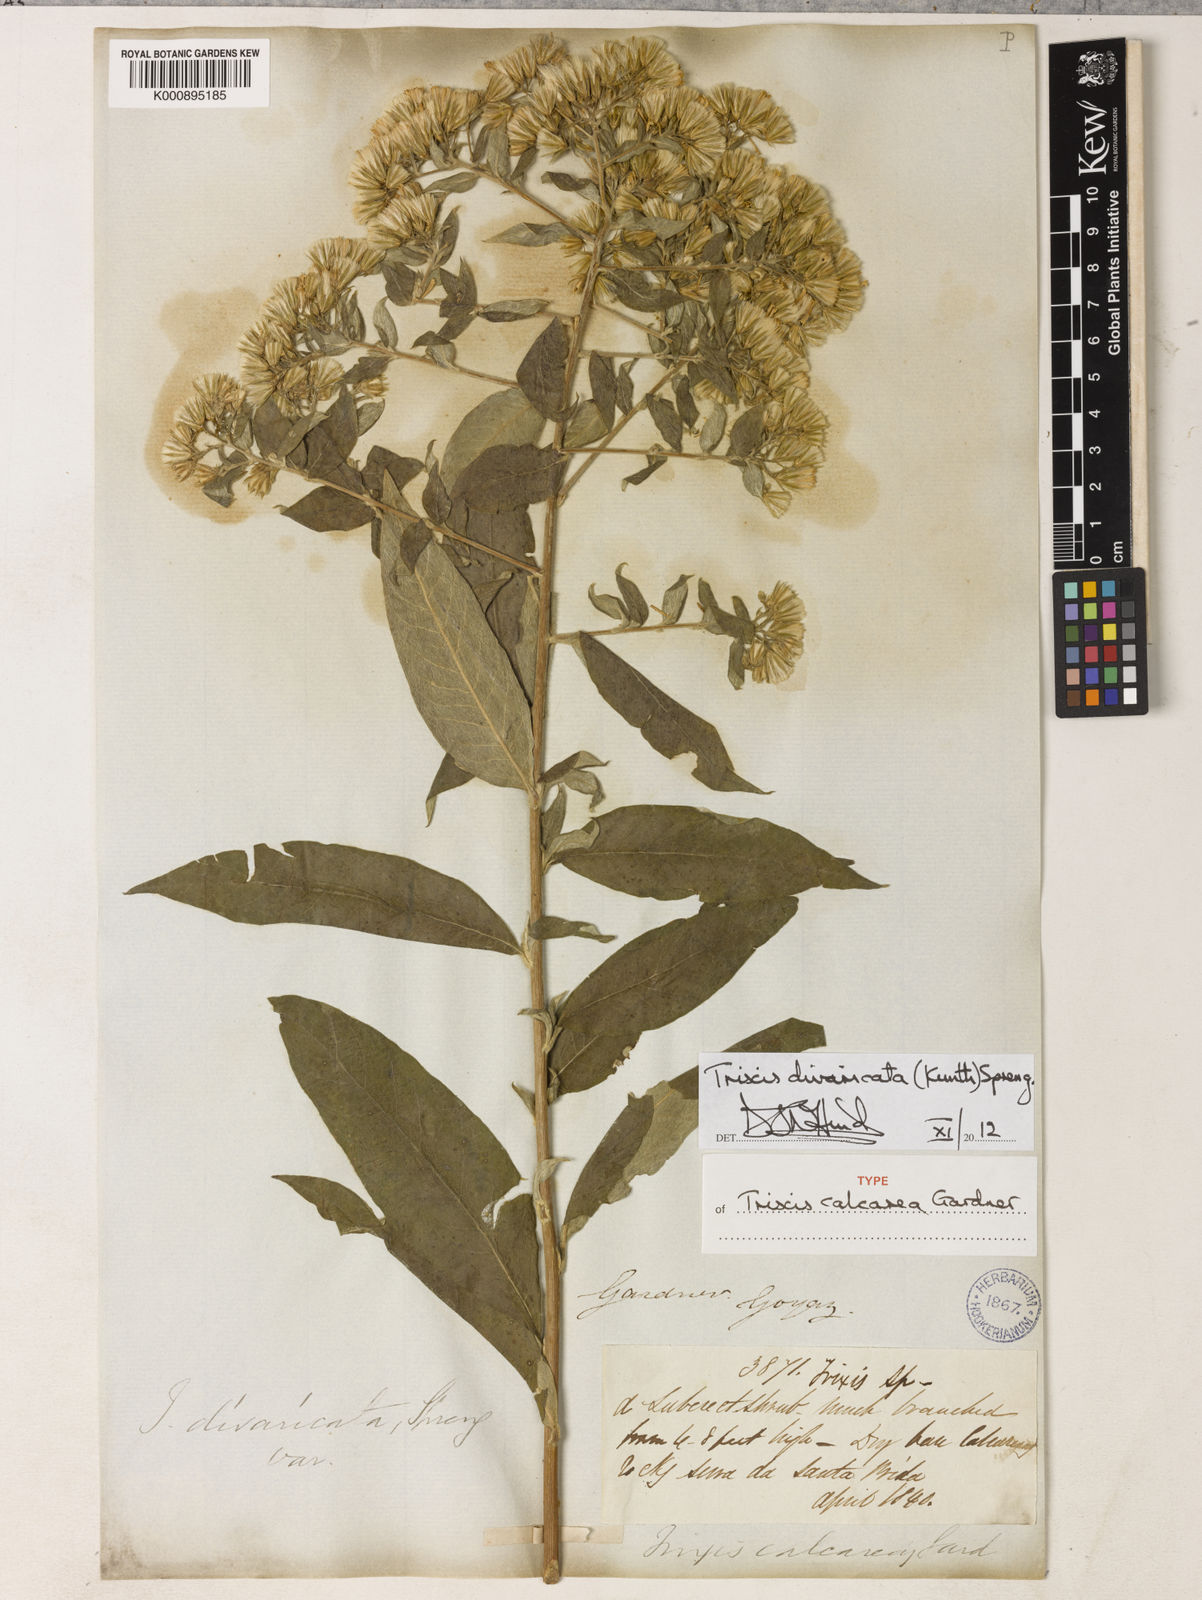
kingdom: Plantae
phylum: Tracheophyta
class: Magnoliopsida
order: Asterales
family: Asteraceae
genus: Trixis
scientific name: Trixis divaricata
